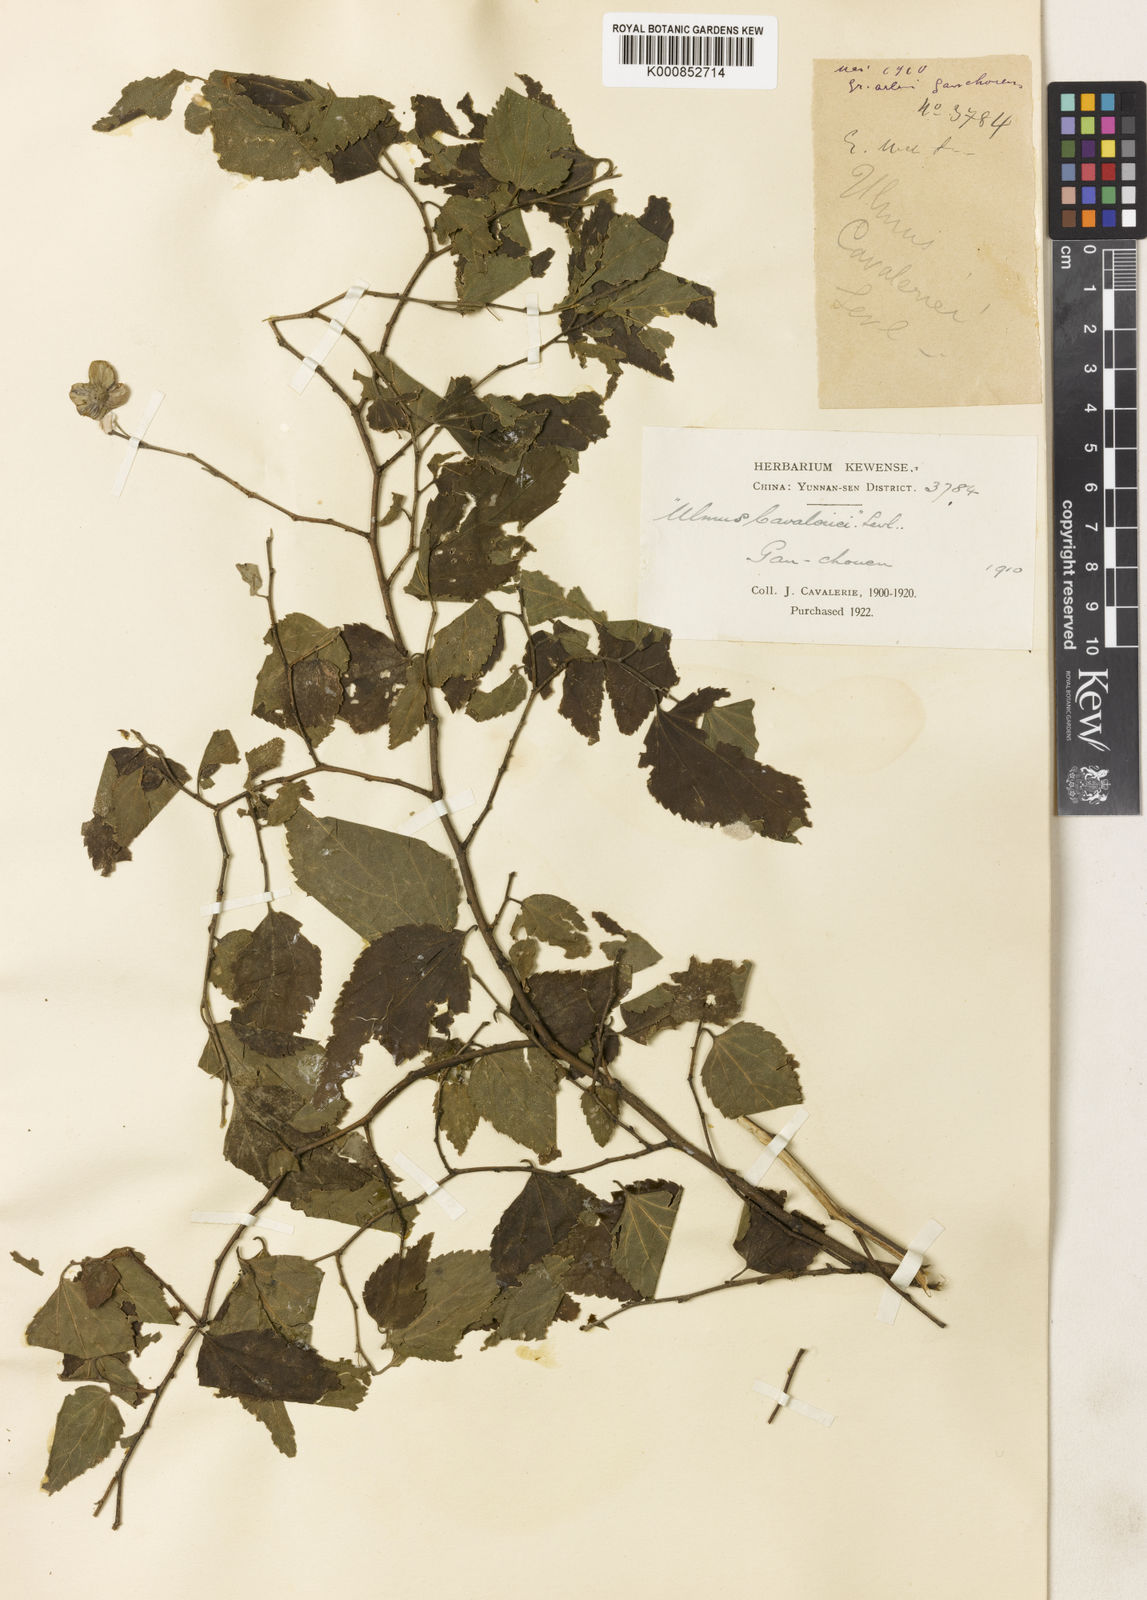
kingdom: Plantae
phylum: Tracheophyta
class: Magnoliopsida
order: Rosales
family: Cannabaceae
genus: Celtis
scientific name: Celtis biondii
